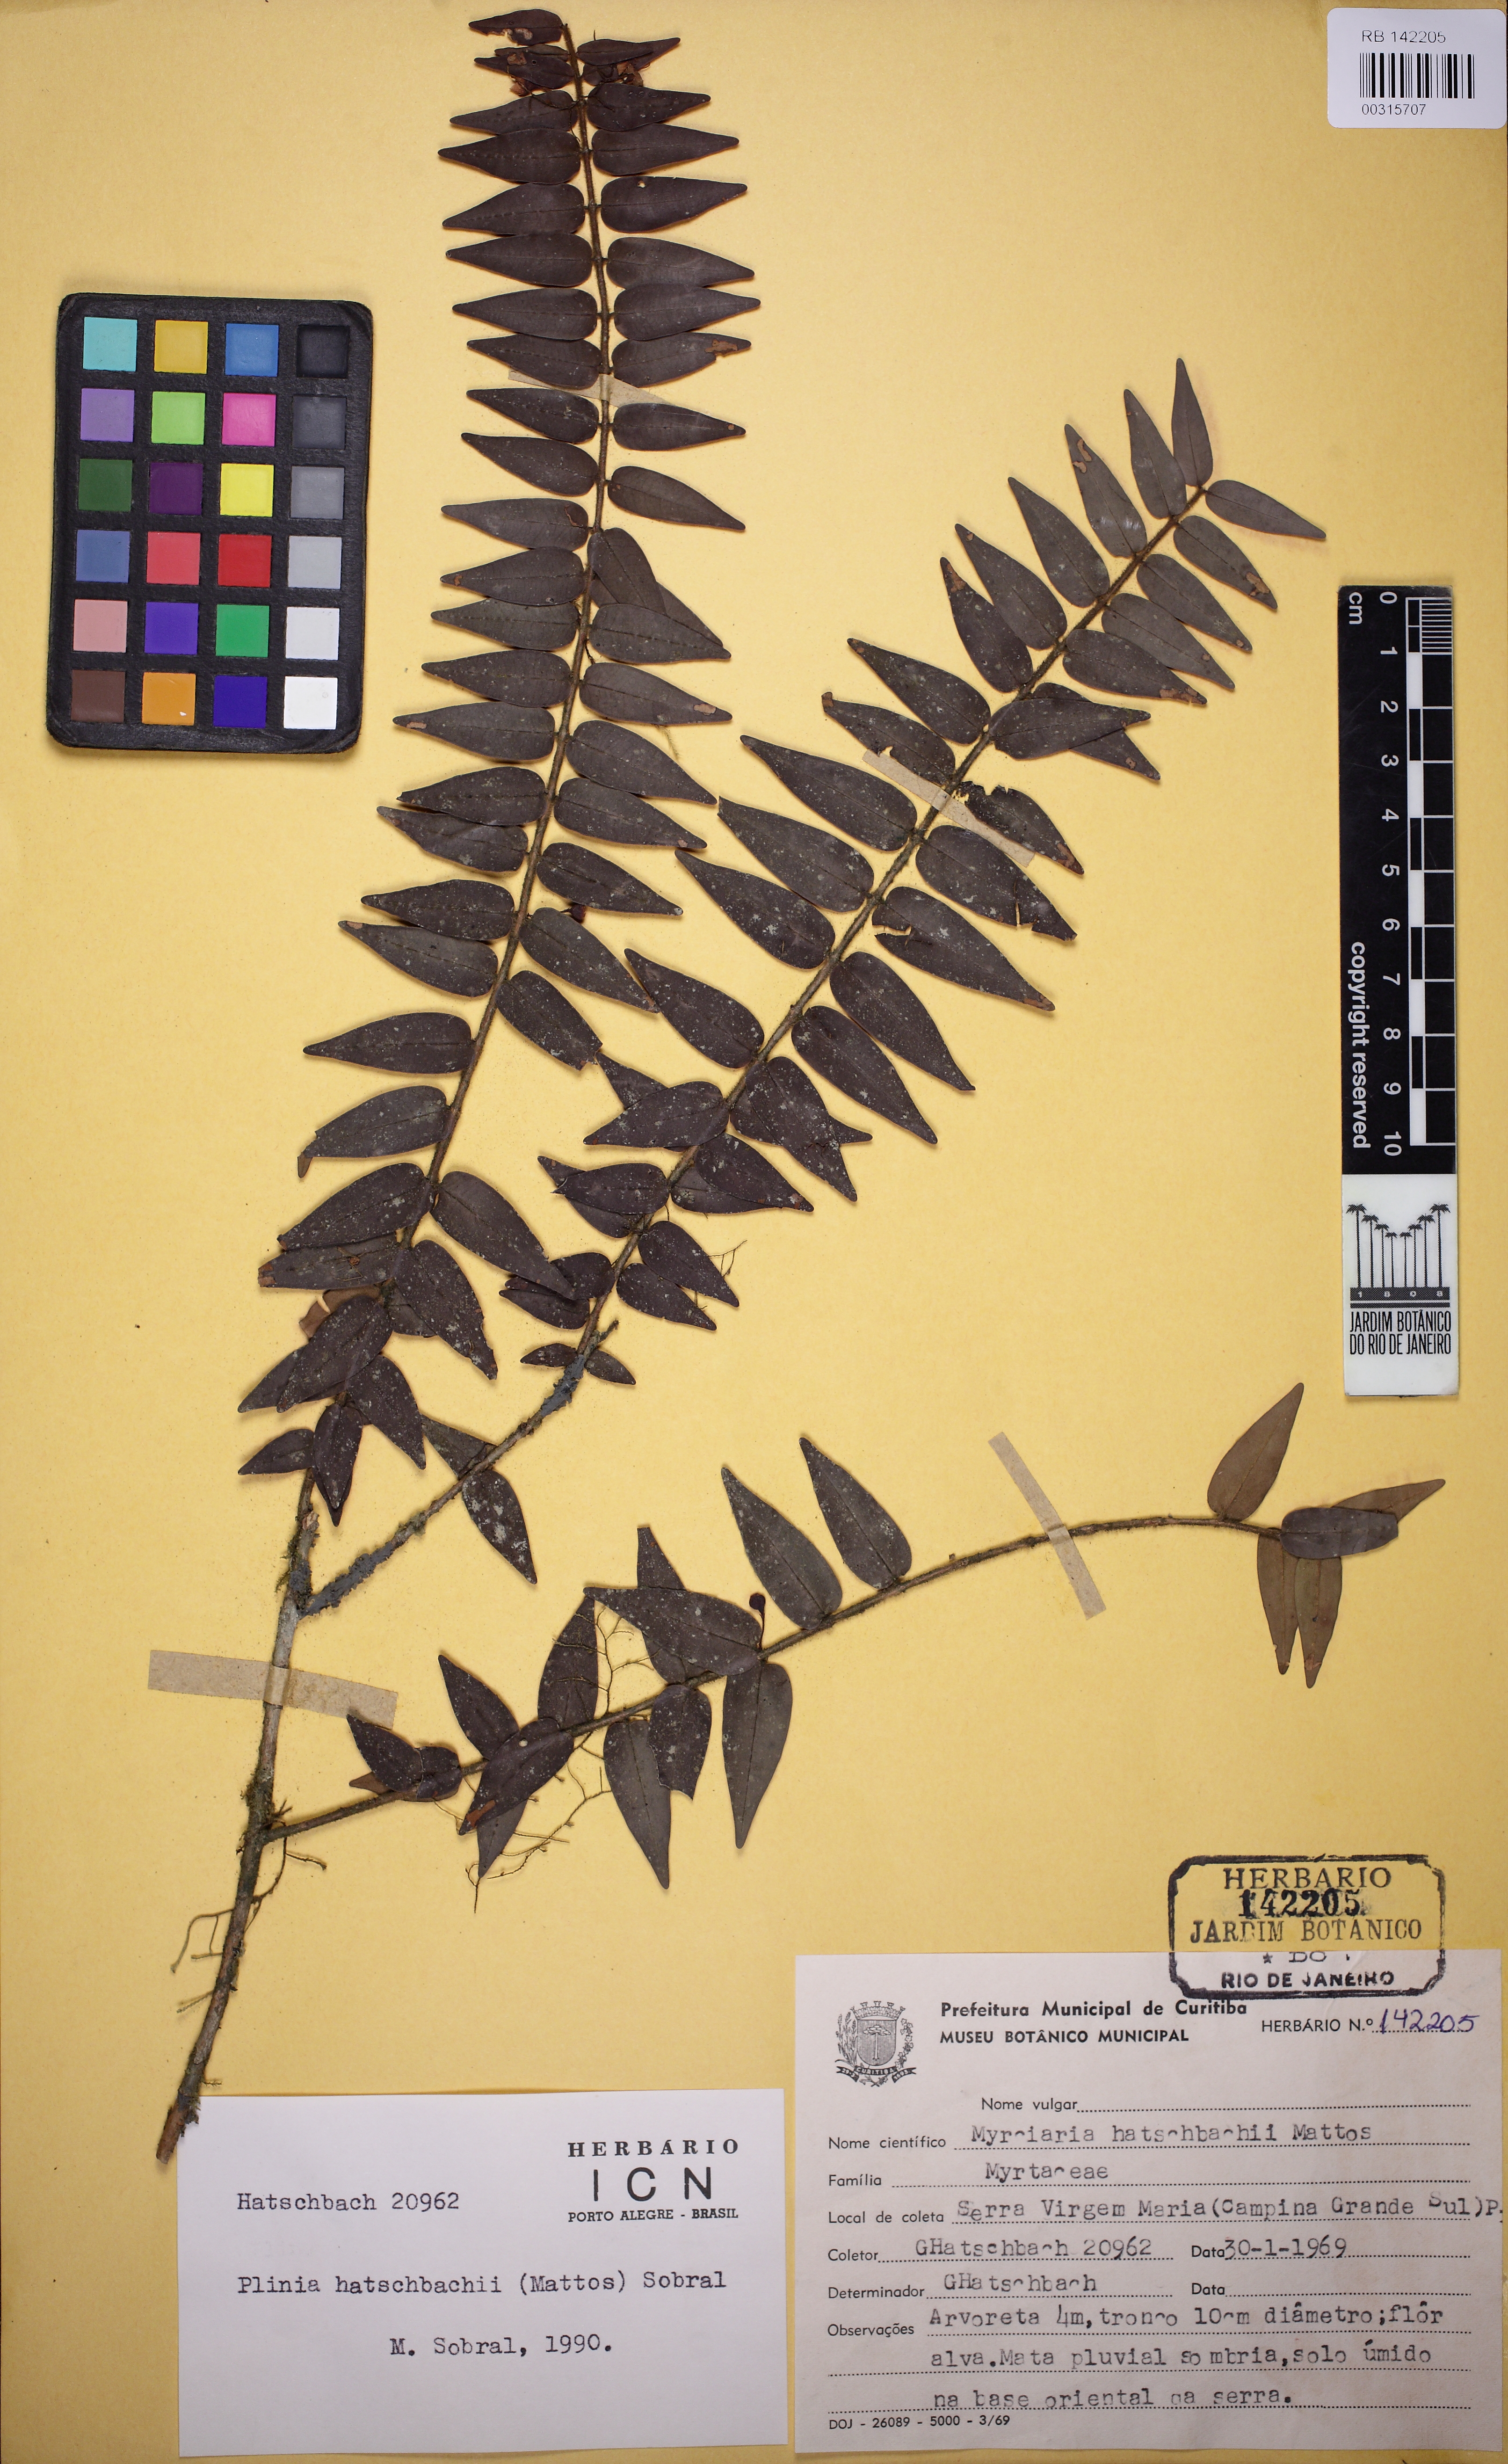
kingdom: Plantae
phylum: Tracheophyta
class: Magnoliopsida
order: Myrtales
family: Myrtaceae
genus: Plinia
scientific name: Plinia hatschbachii
